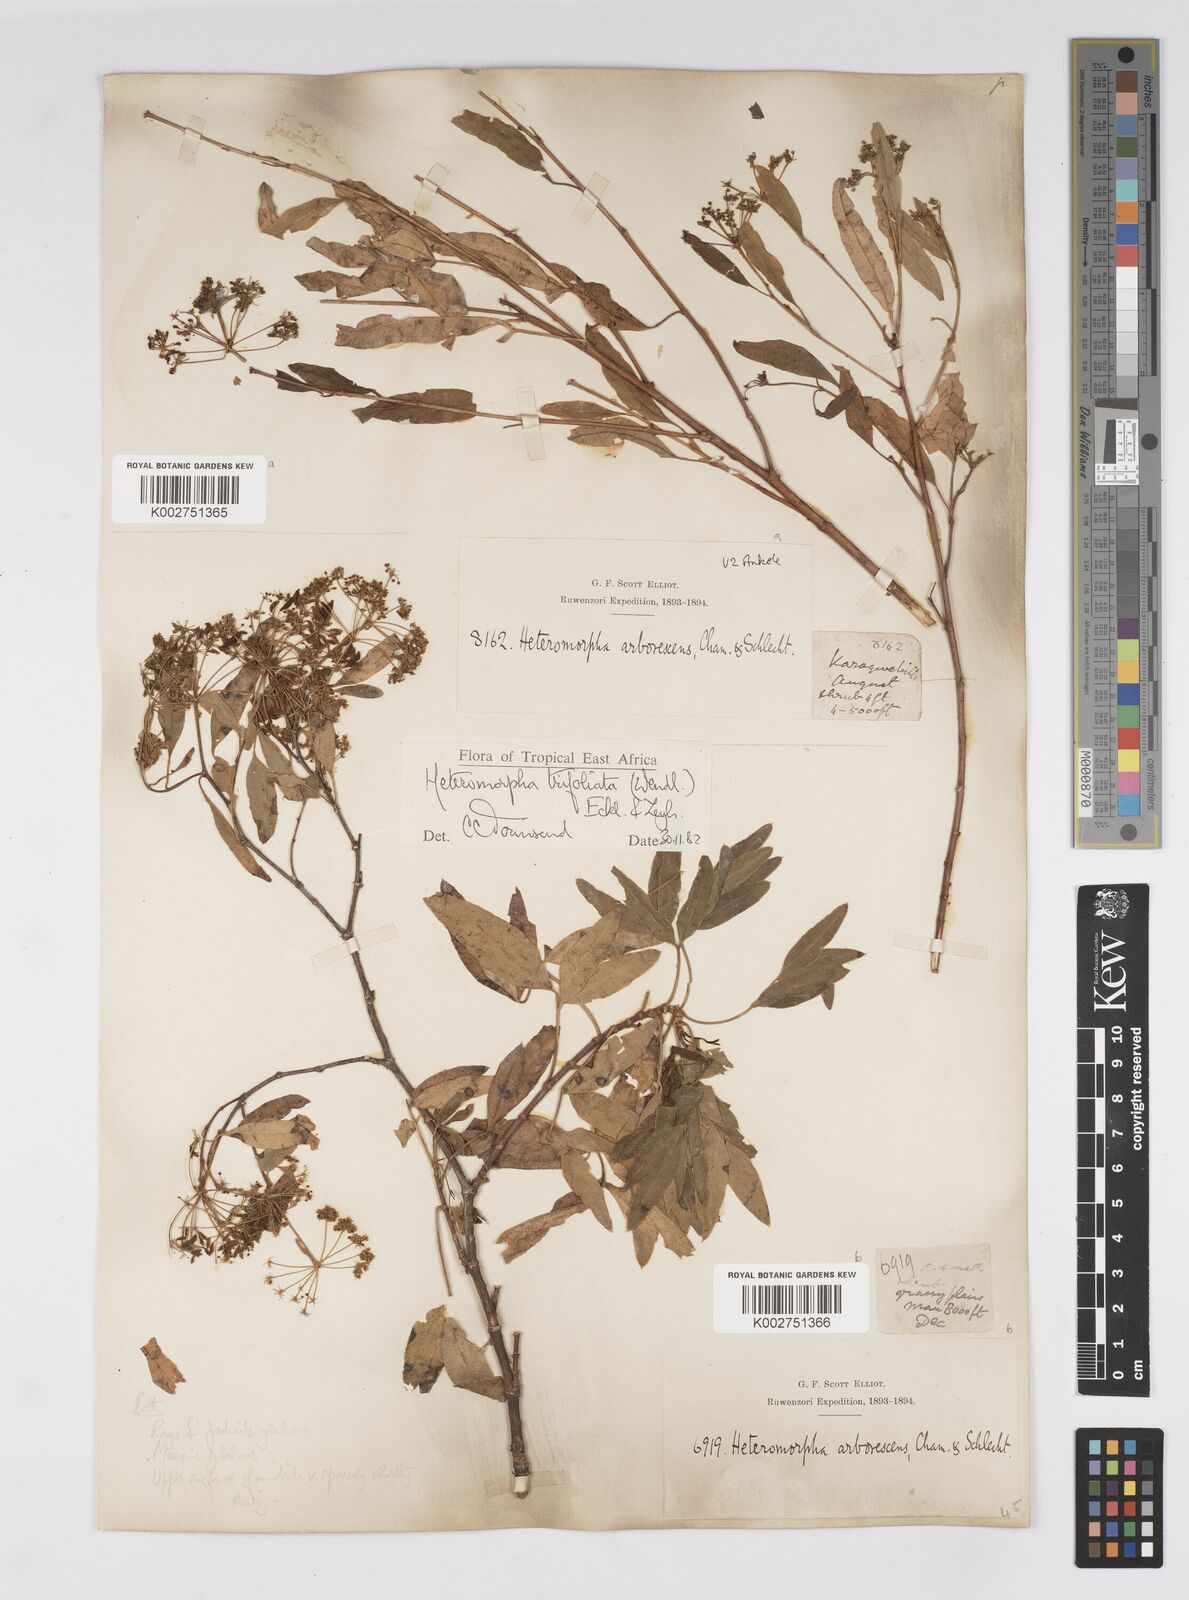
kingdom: Plantae
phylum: Tracheophyta
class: Magnoliopsida
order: Apiales
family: Apiaceae
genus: Heteromorpha
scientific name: Heteromorpha arborescens
